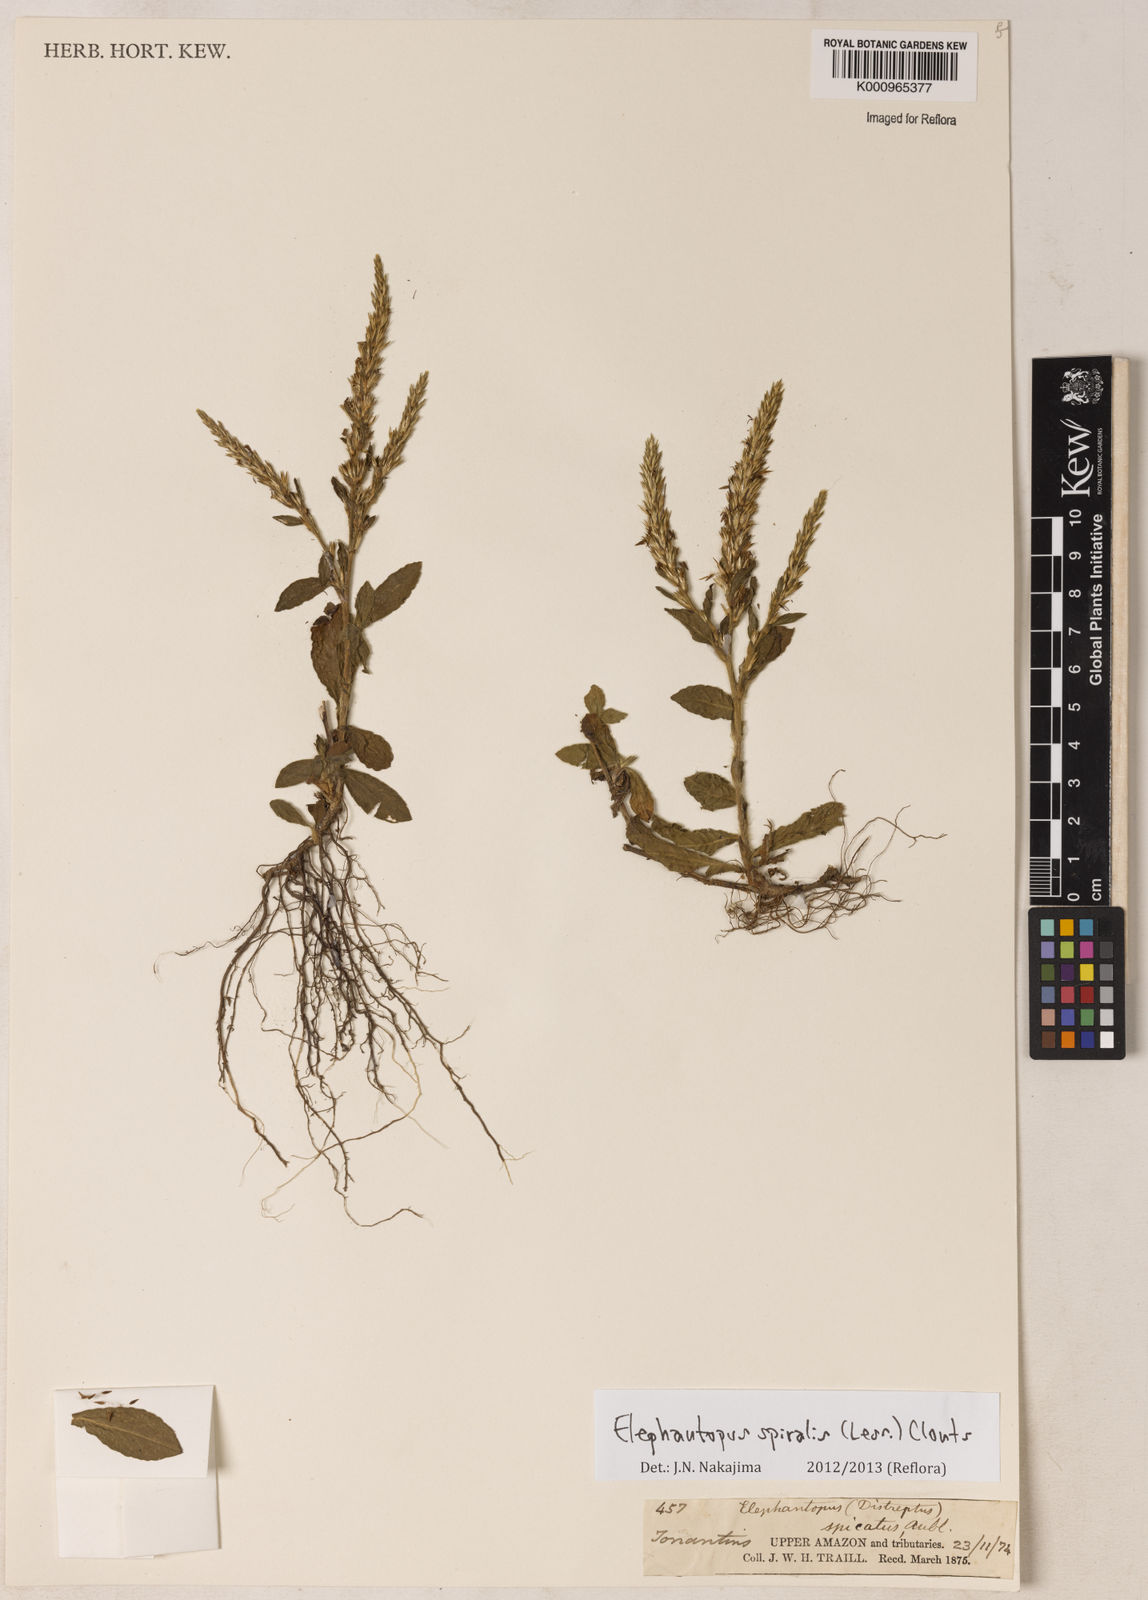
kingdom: Plantae
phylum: Tracheophyta
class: Magnoliopsida
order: Asterales
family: Asteraceae
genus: Pseudelephantopus
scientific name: Pseudelephantopus spiralis
